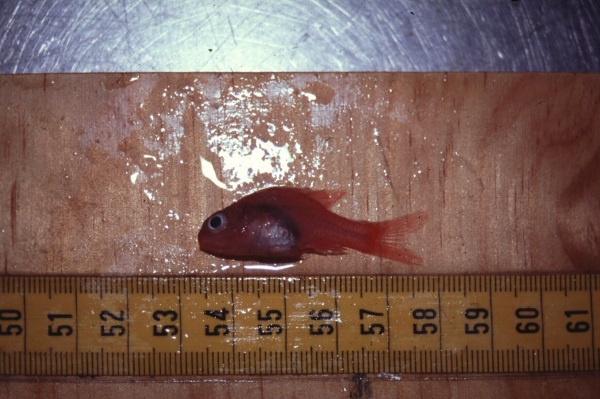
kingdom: Animalia
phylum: Chordata
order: Perciformes
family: Apogonidae
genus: Apogon
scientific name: Apogon
